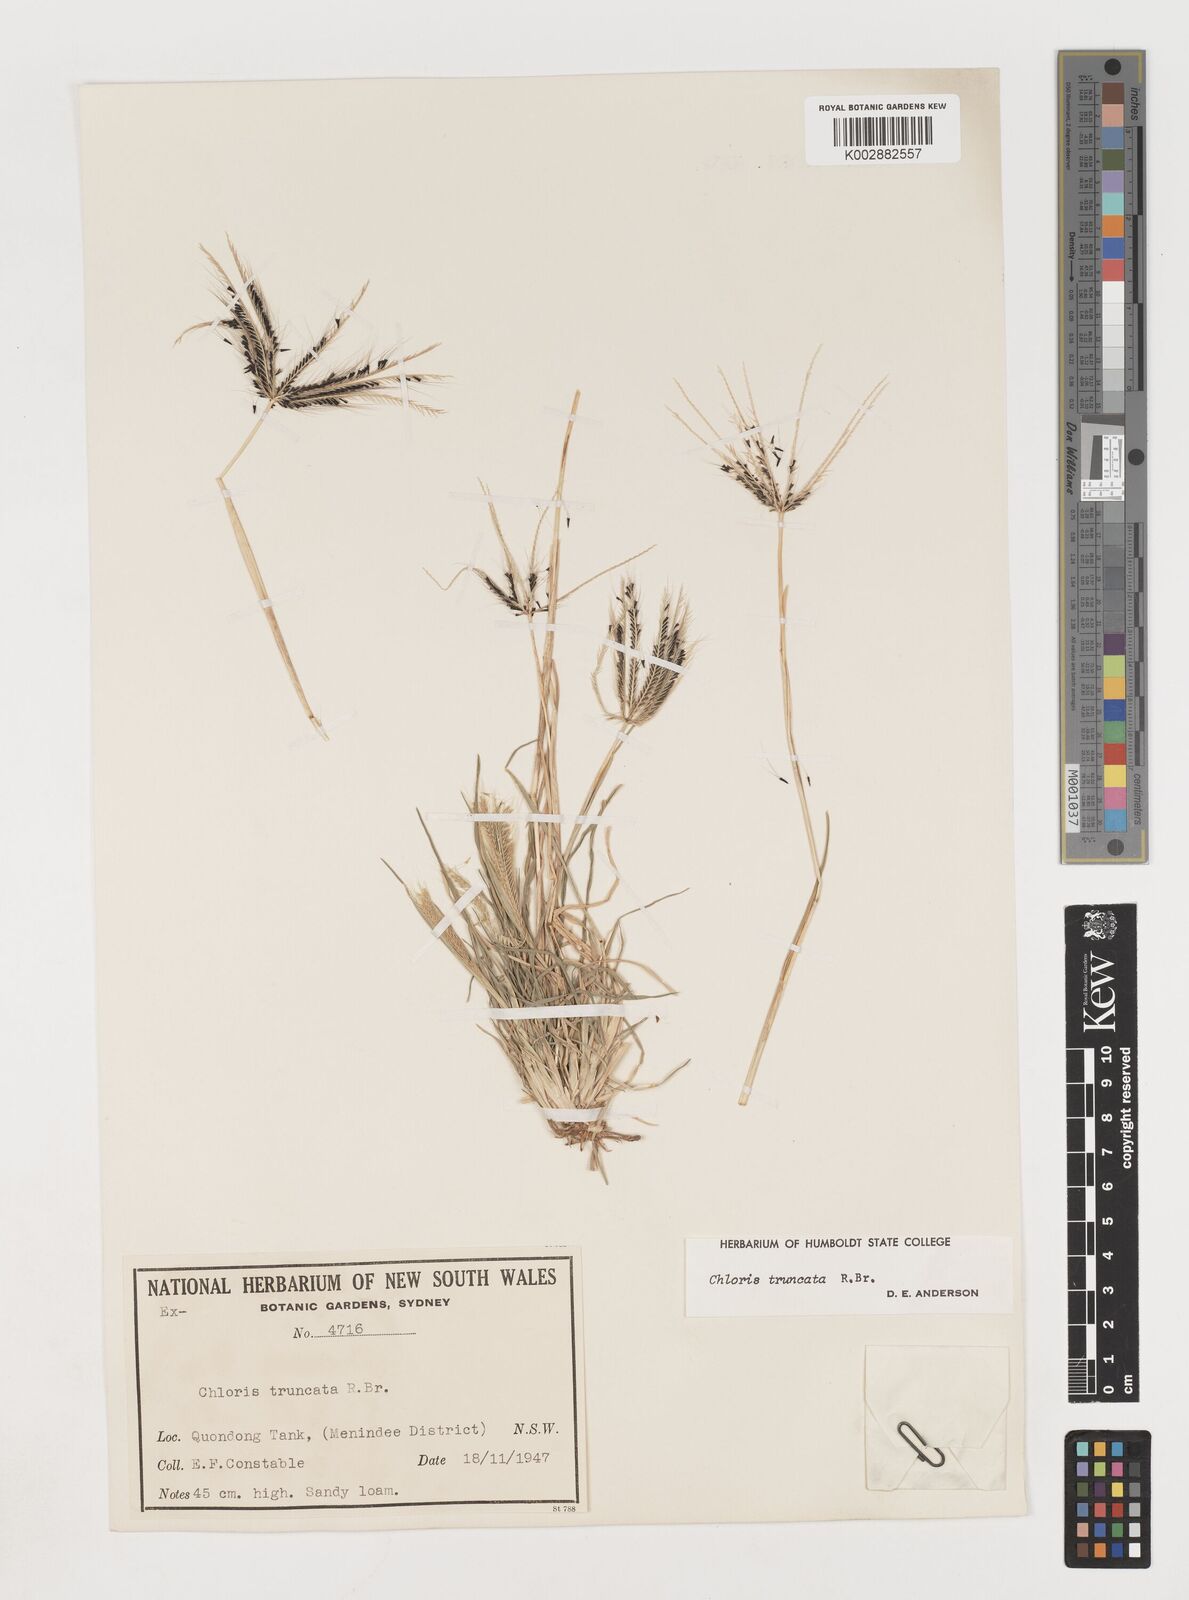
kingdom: Plantae
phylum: Tracheophyta
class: Liliopsida
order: Poales
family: Poaceae
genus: Chloris
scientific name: Chloris truncata
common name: Windmill-grass
